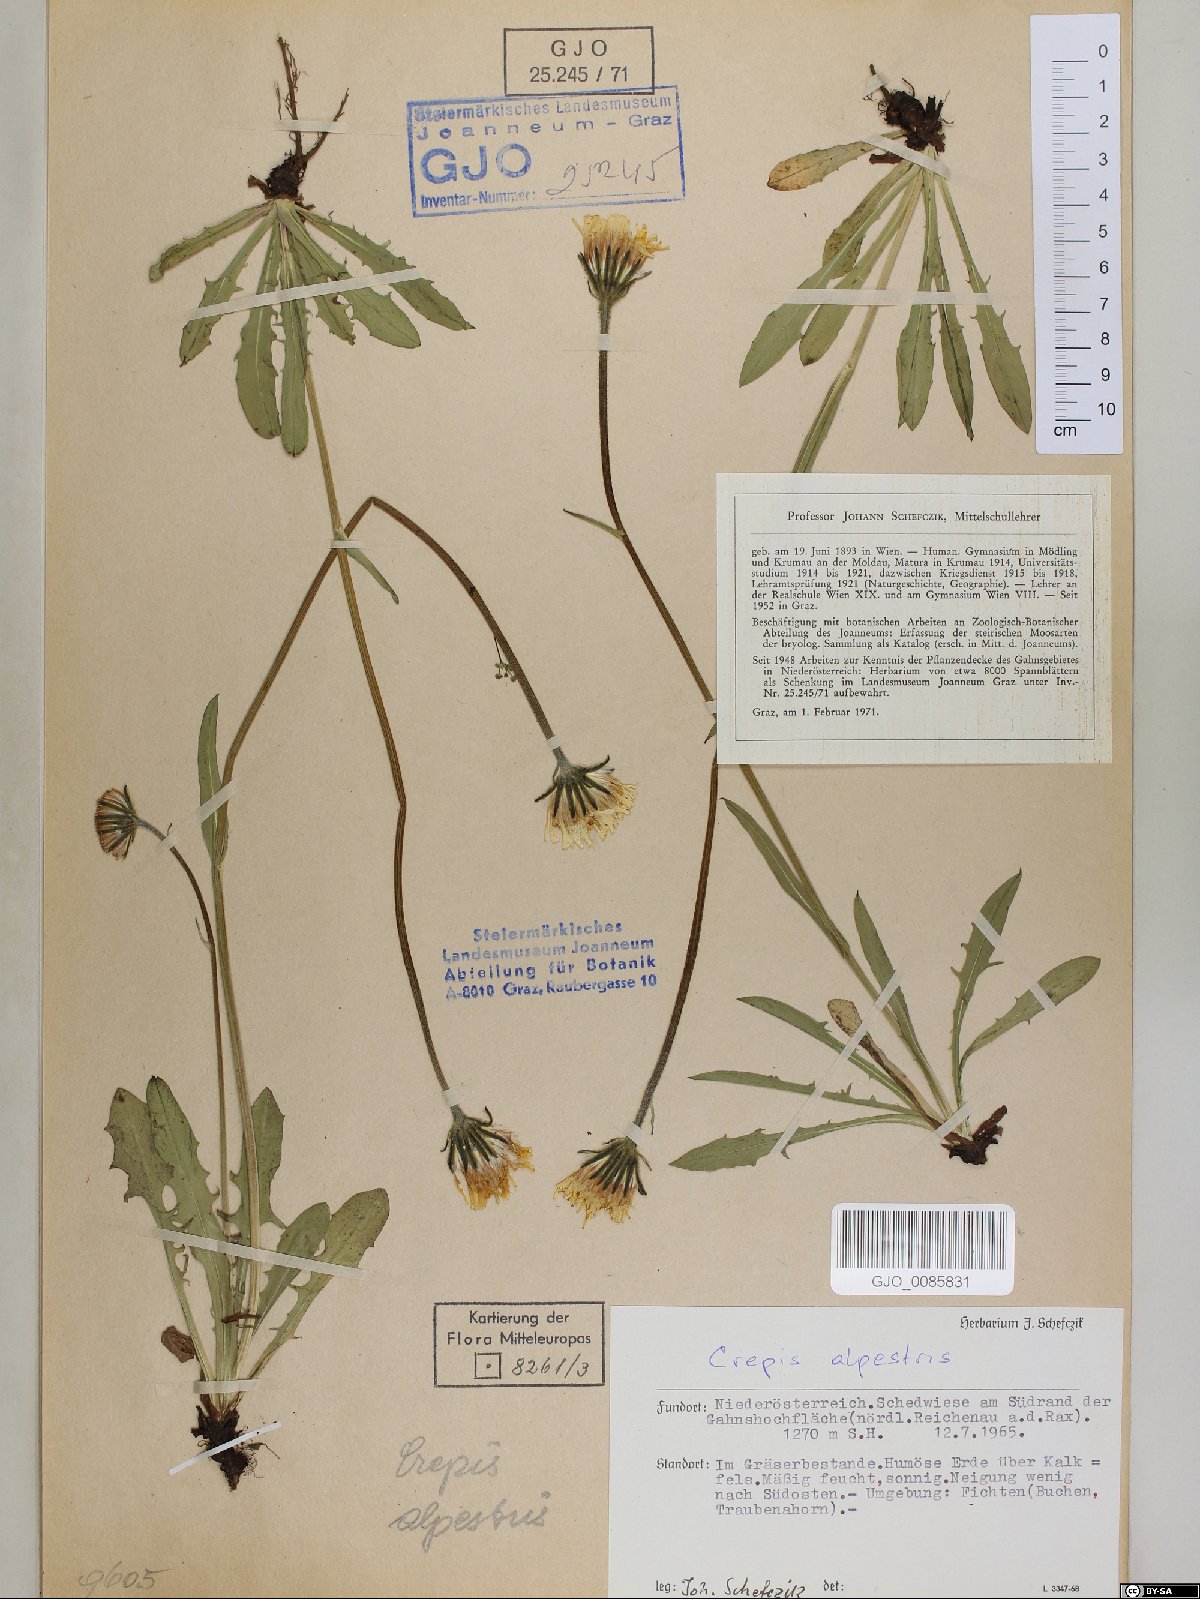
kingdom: Plantae
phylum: Tracheophyta
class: Magnoliopsida
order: Asterales
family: Asteraceae
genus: Crepis
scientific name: Crepis alpestris
